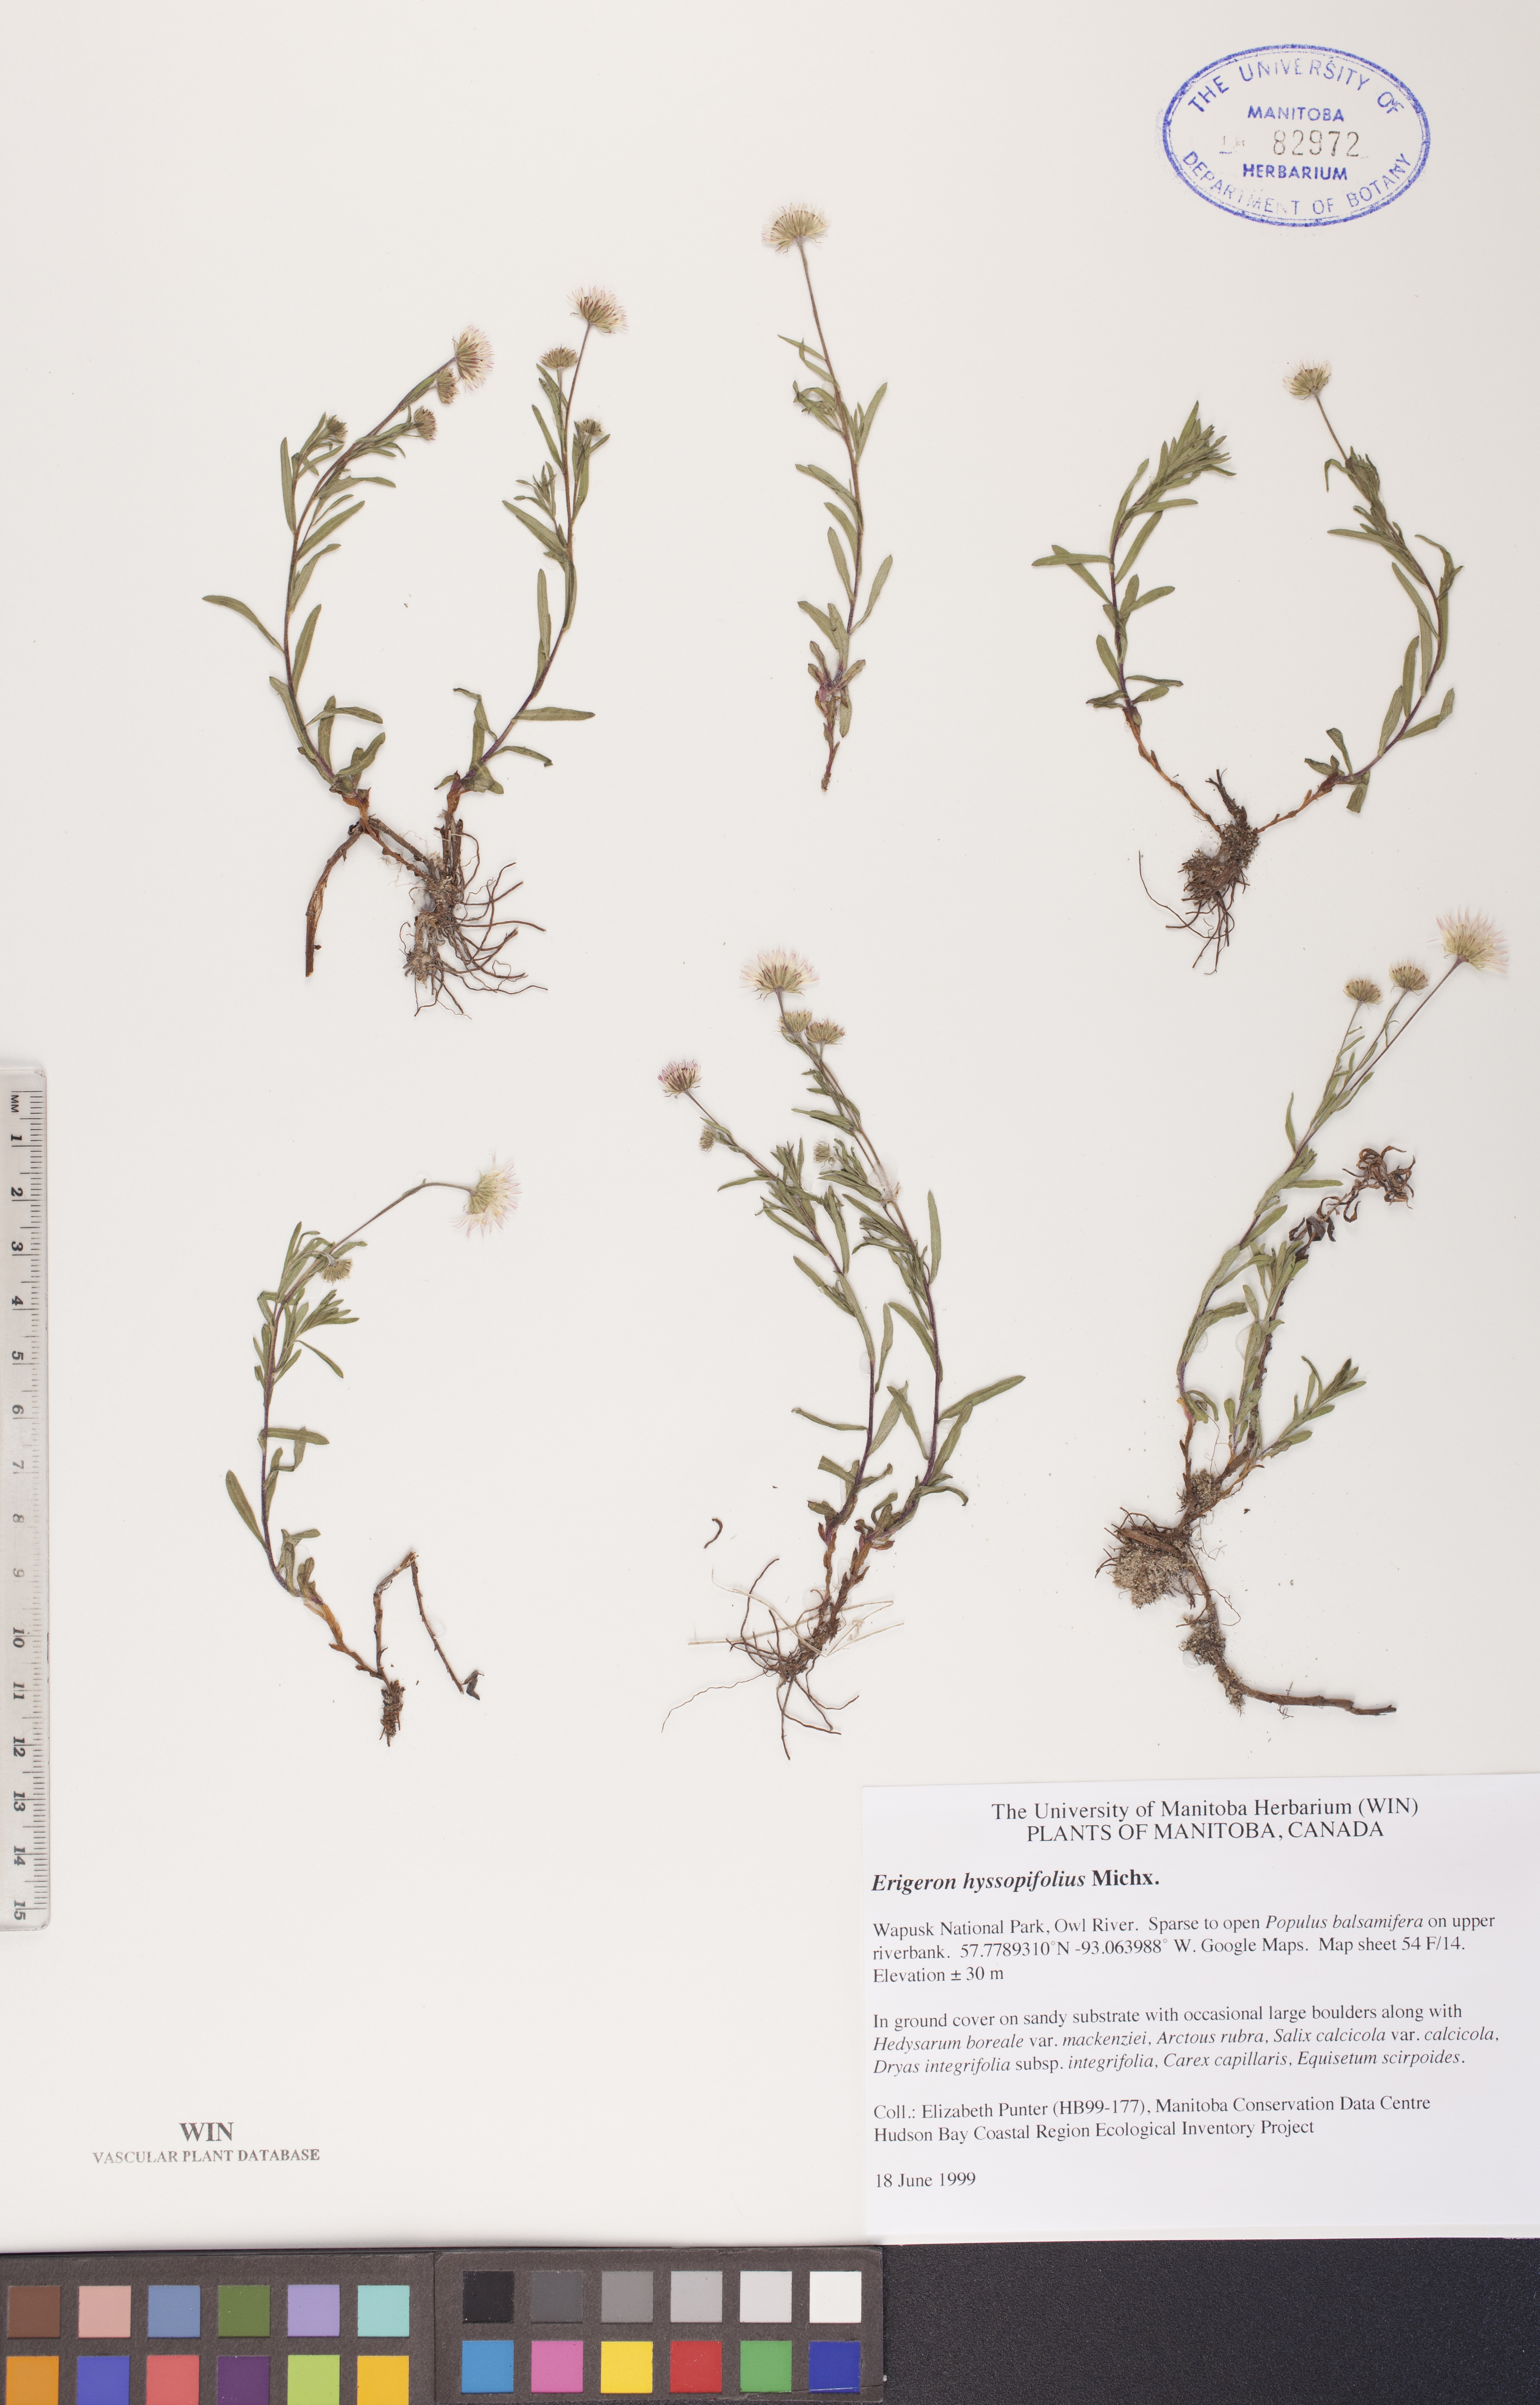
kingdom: Plantae
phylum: Tracheophyta
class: Magnoliopsida
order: Asterales
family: Asteraceae
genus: Erigeron
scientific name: Erigeron hyssopifolius
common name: Daisy fleabane
